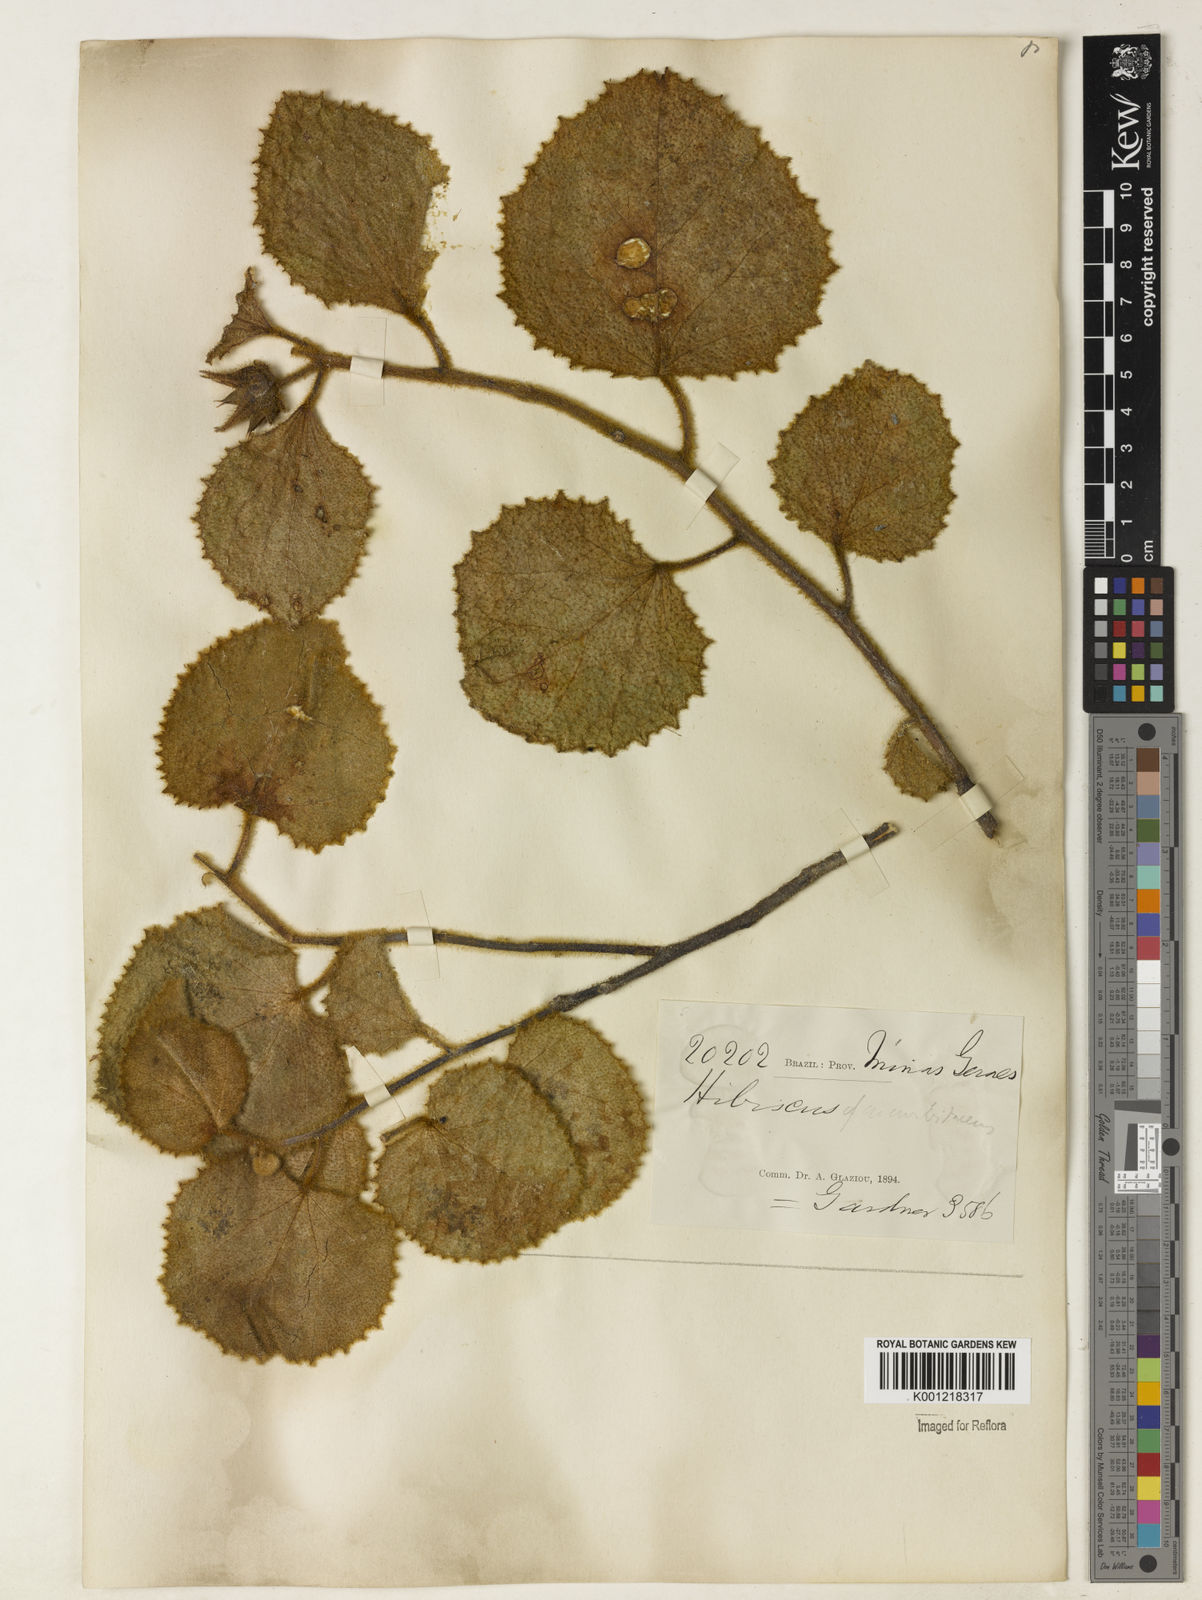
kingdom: Plantae
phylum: Tracheophyta
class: Magnoliopsida
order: Malvales
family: Malvaceae
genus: Hibiscus
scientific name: Hibiscus cucurbitaceus
